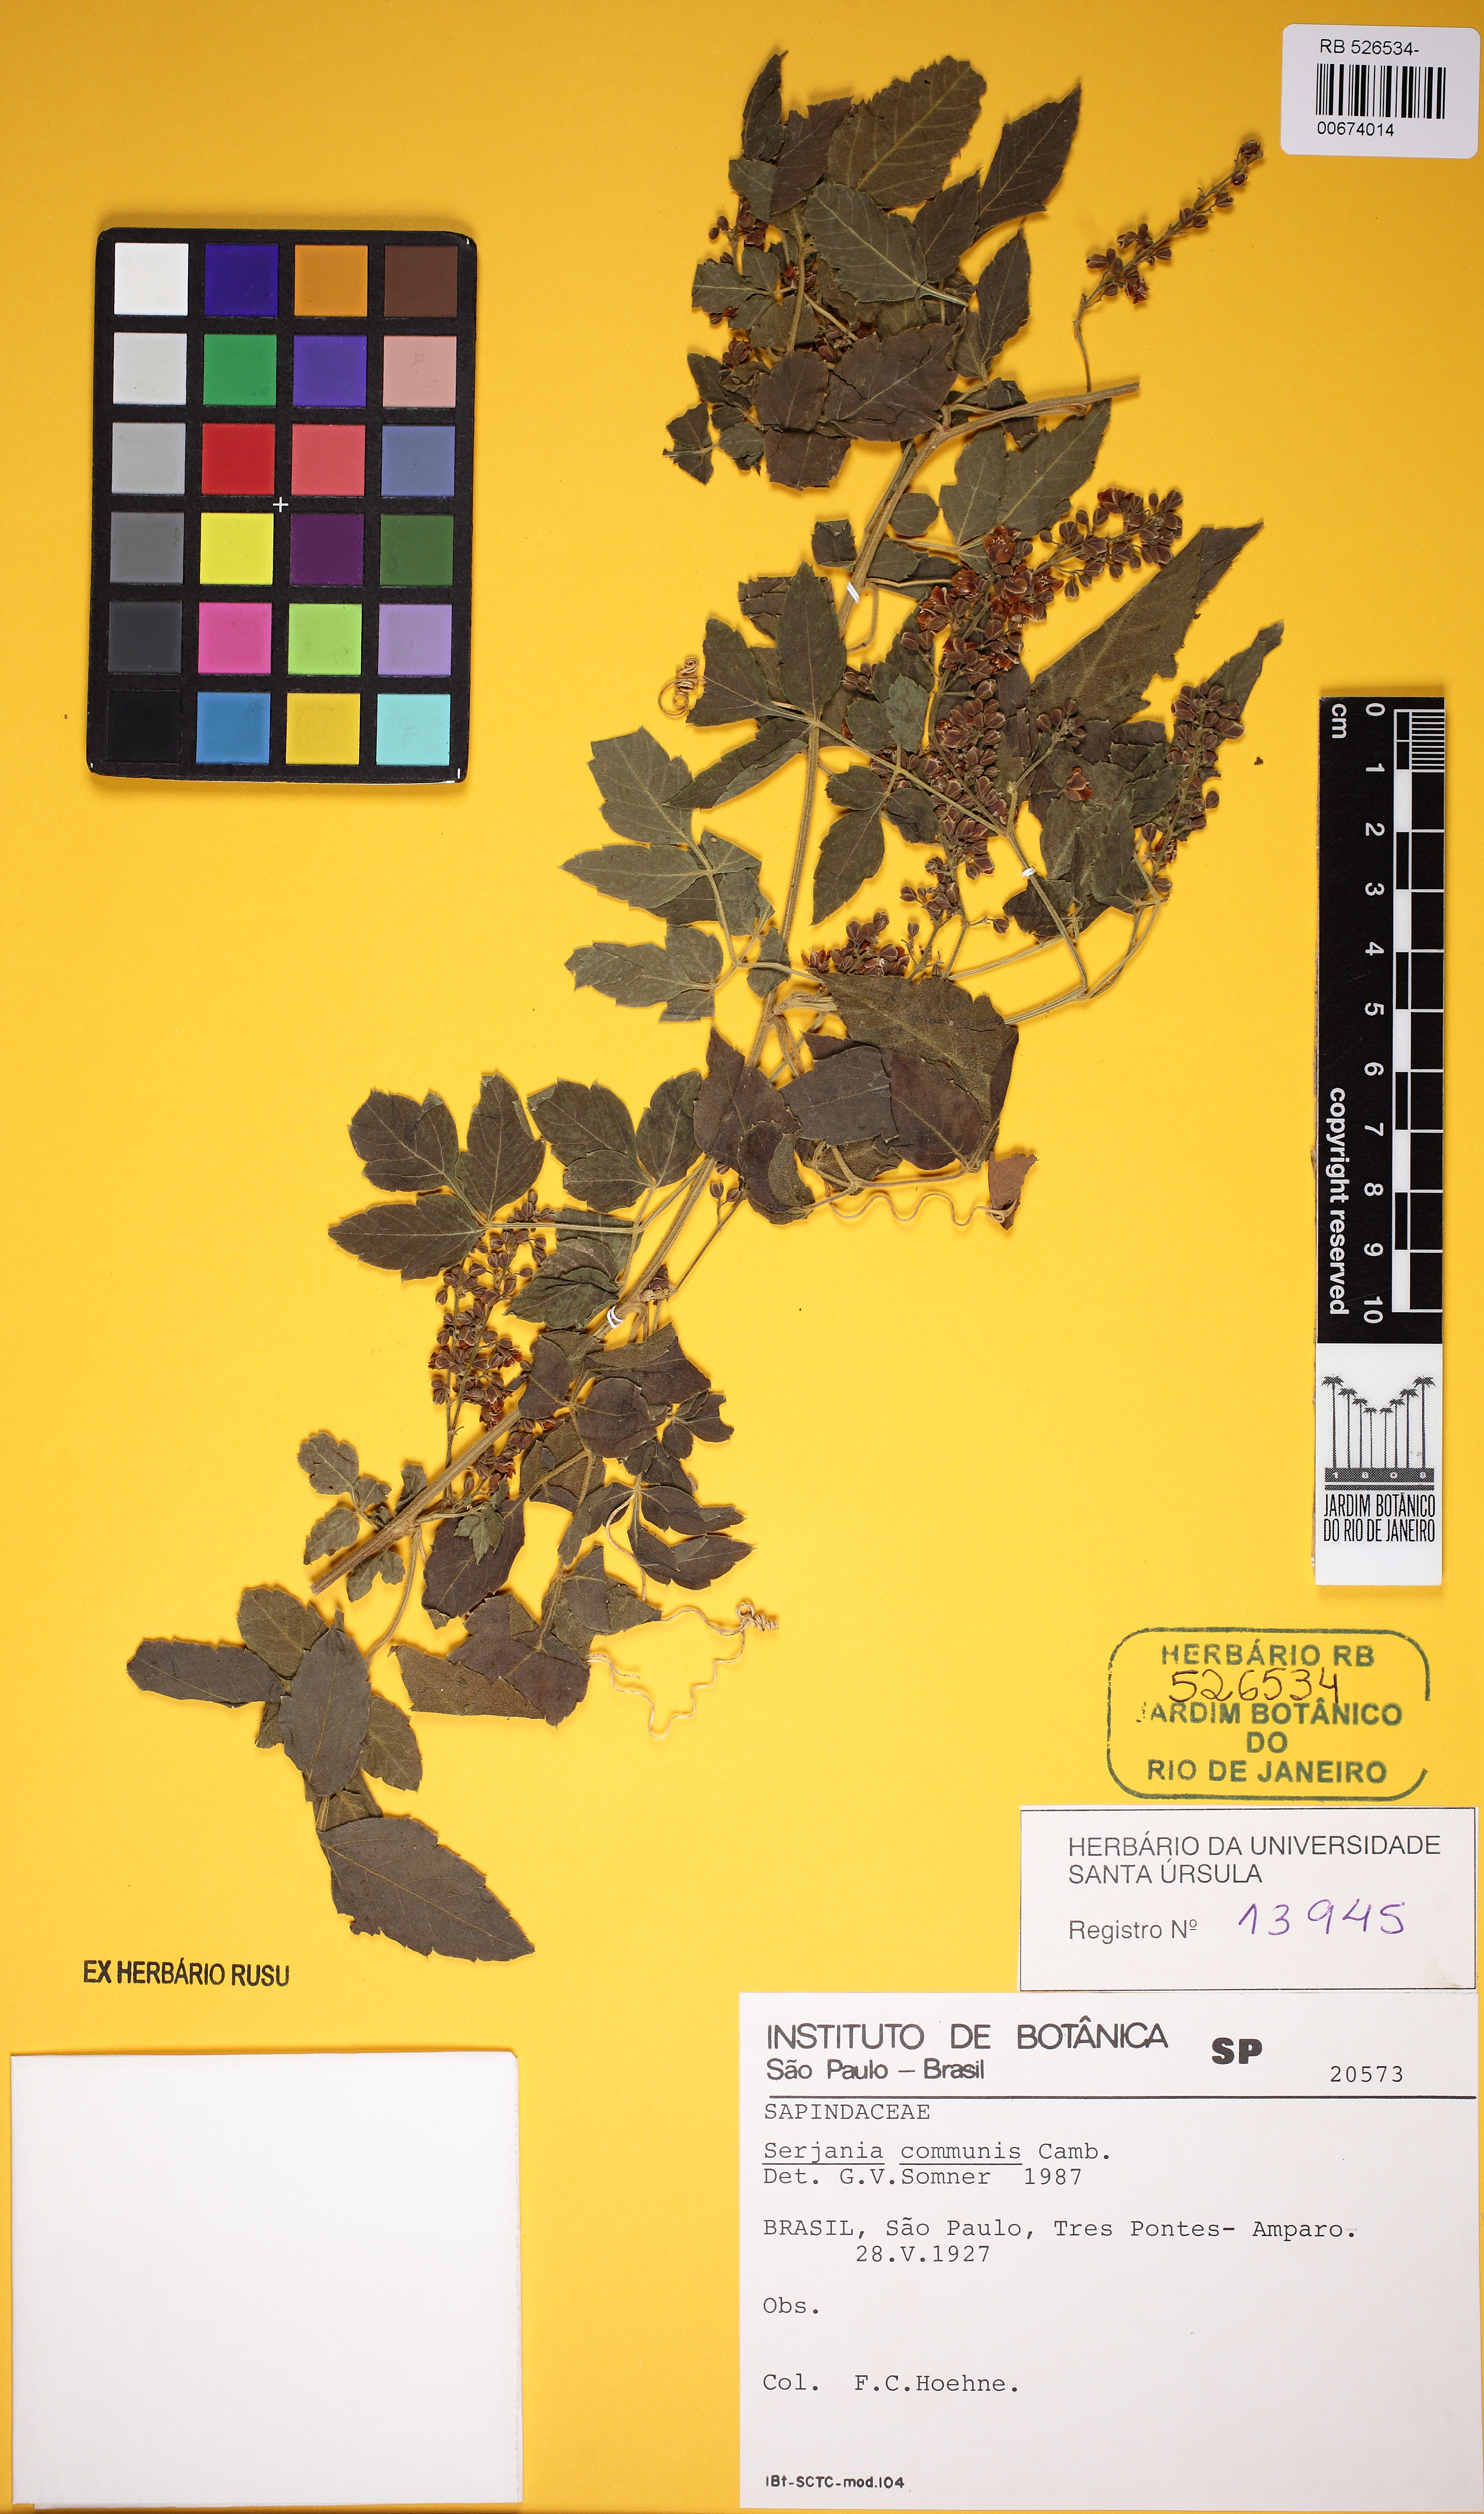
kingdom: Plantae
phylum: Tracheophyta
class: Magnoliopsida
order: Sapindales
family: Sapindaceae
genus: Serjania
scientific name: Serjania communis
